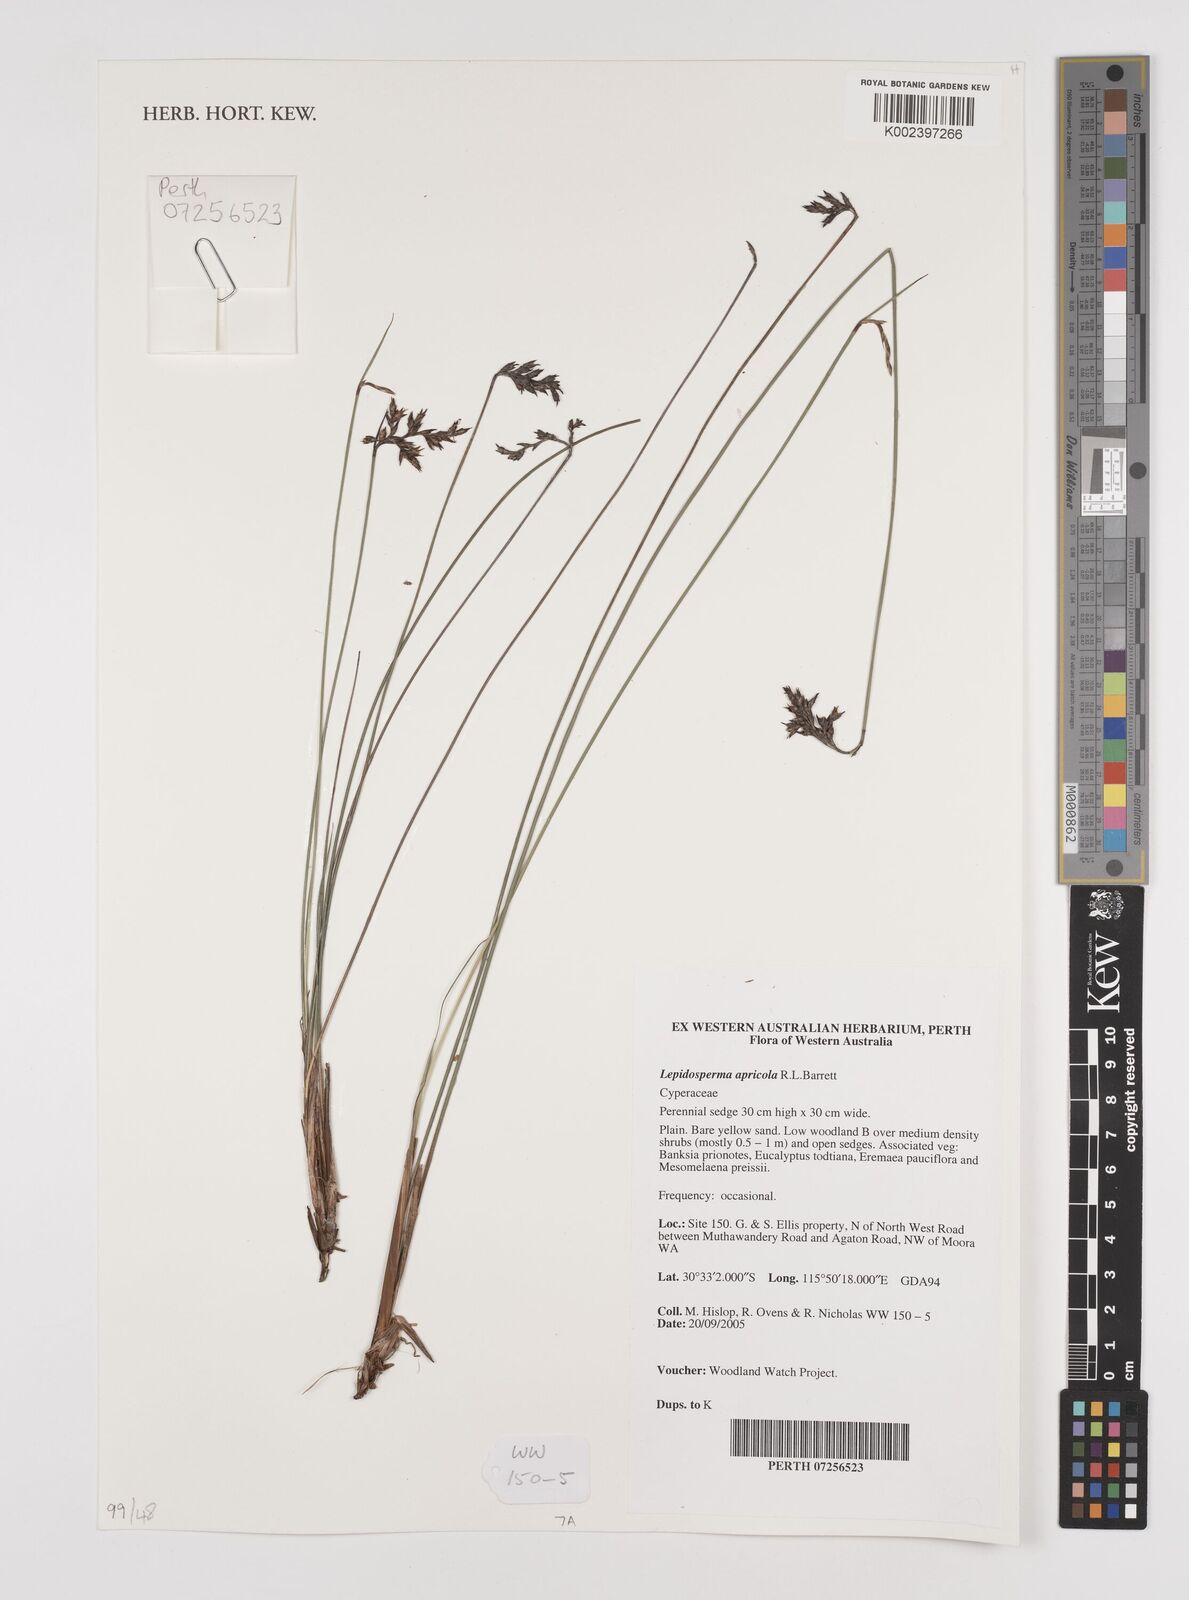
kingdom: Plantae
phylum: Tracheophyta
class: Liliopsida
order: Poales
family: Cyperaceae
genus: Lepidosperma
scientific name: Lepidosperma apricola
